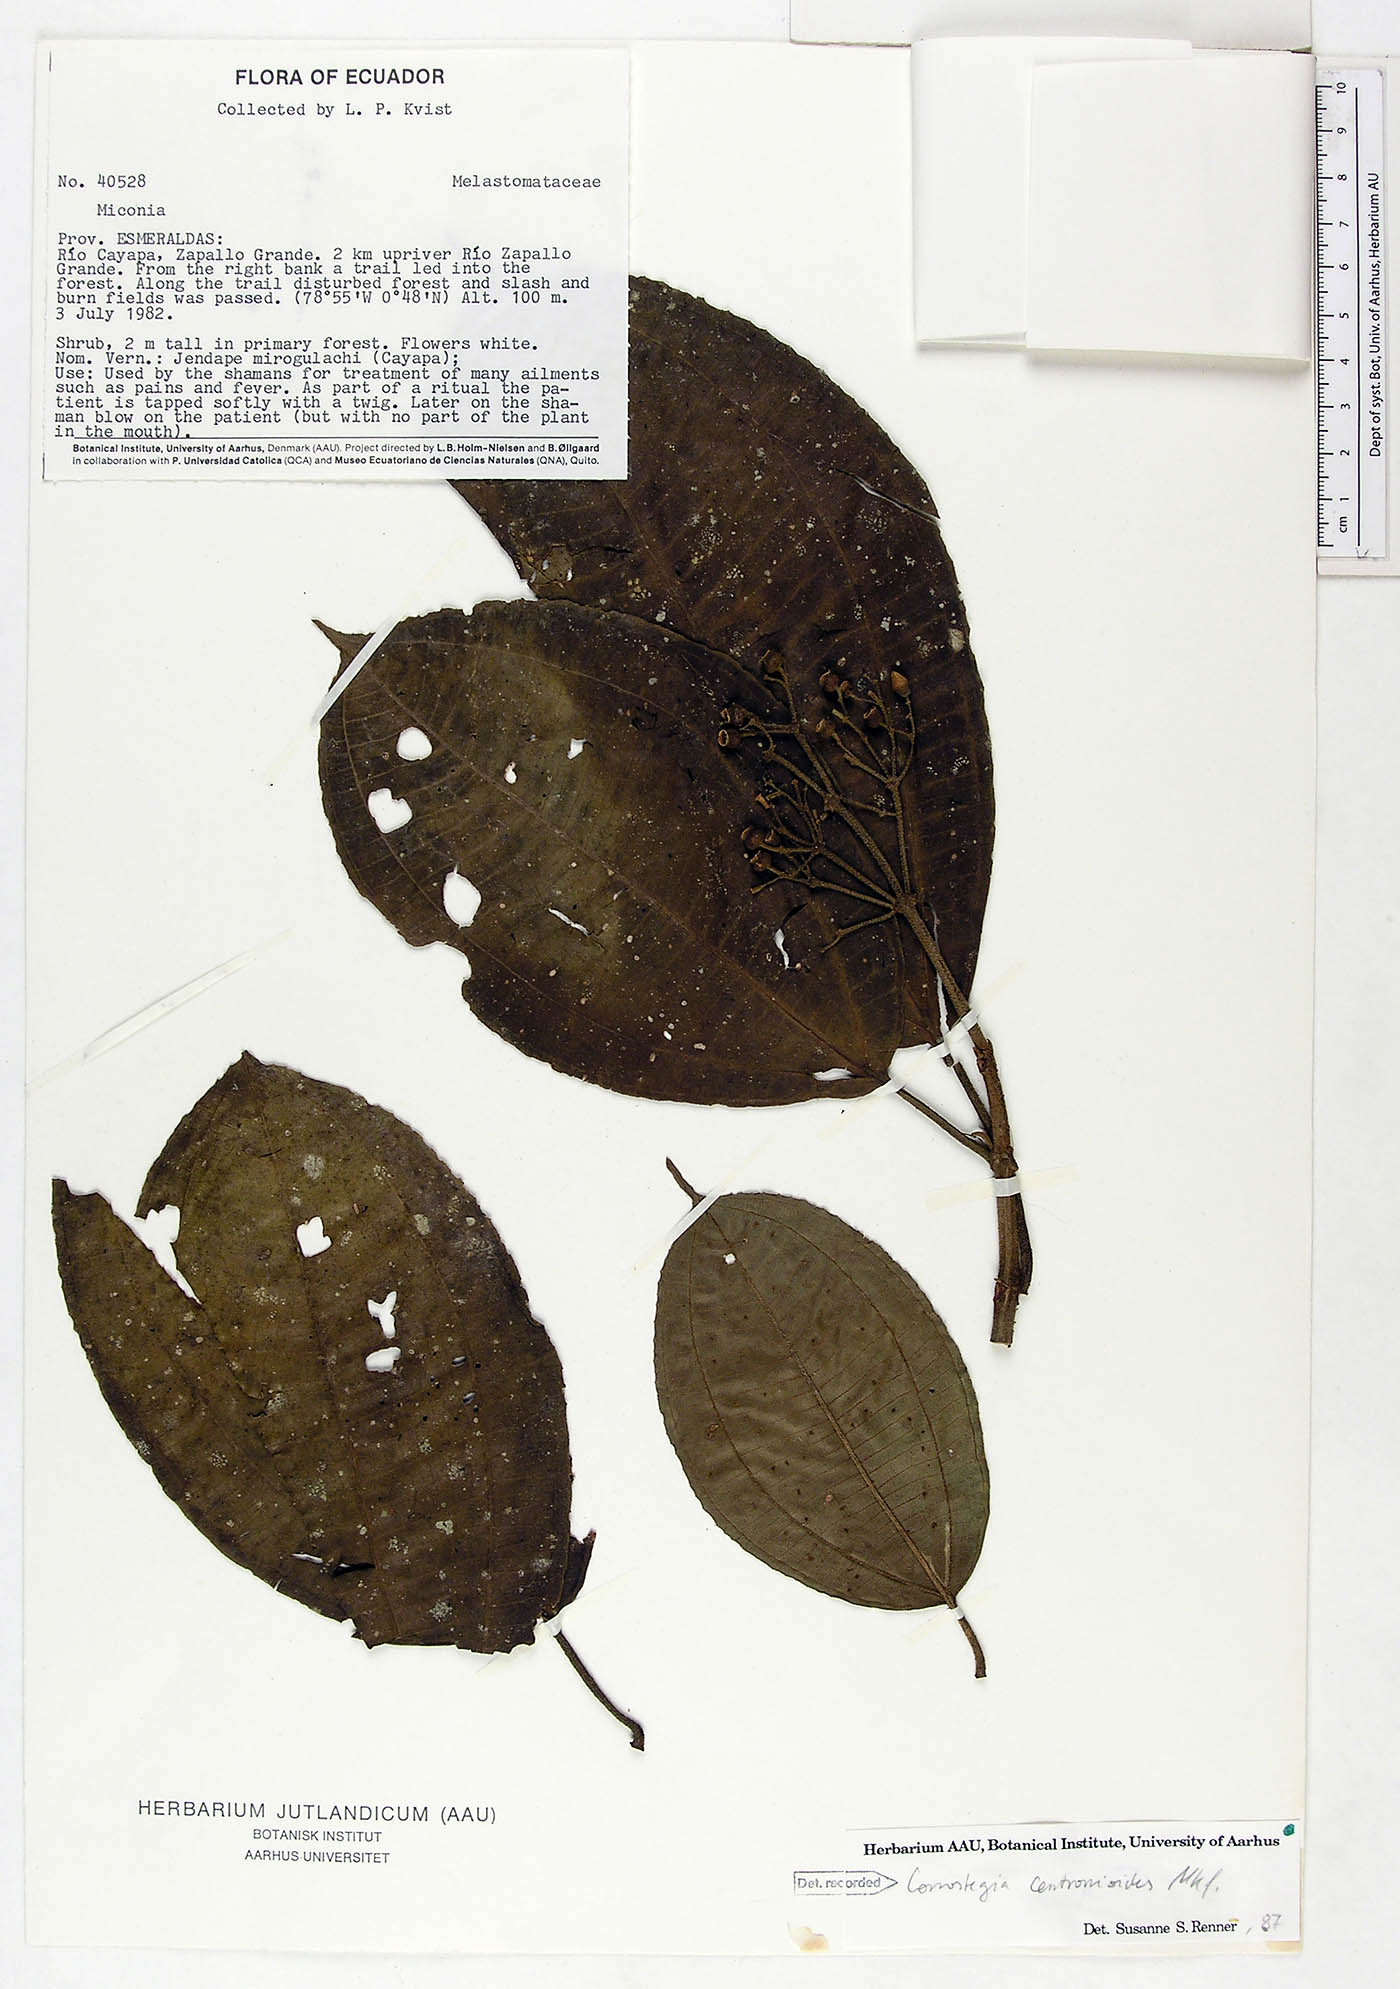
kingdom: Plantae
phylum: Tracheophyta
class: Magnoliopsida
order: Myrtales
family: Melastomataceae
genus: Miconia
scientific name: Miconia conocentronioides
